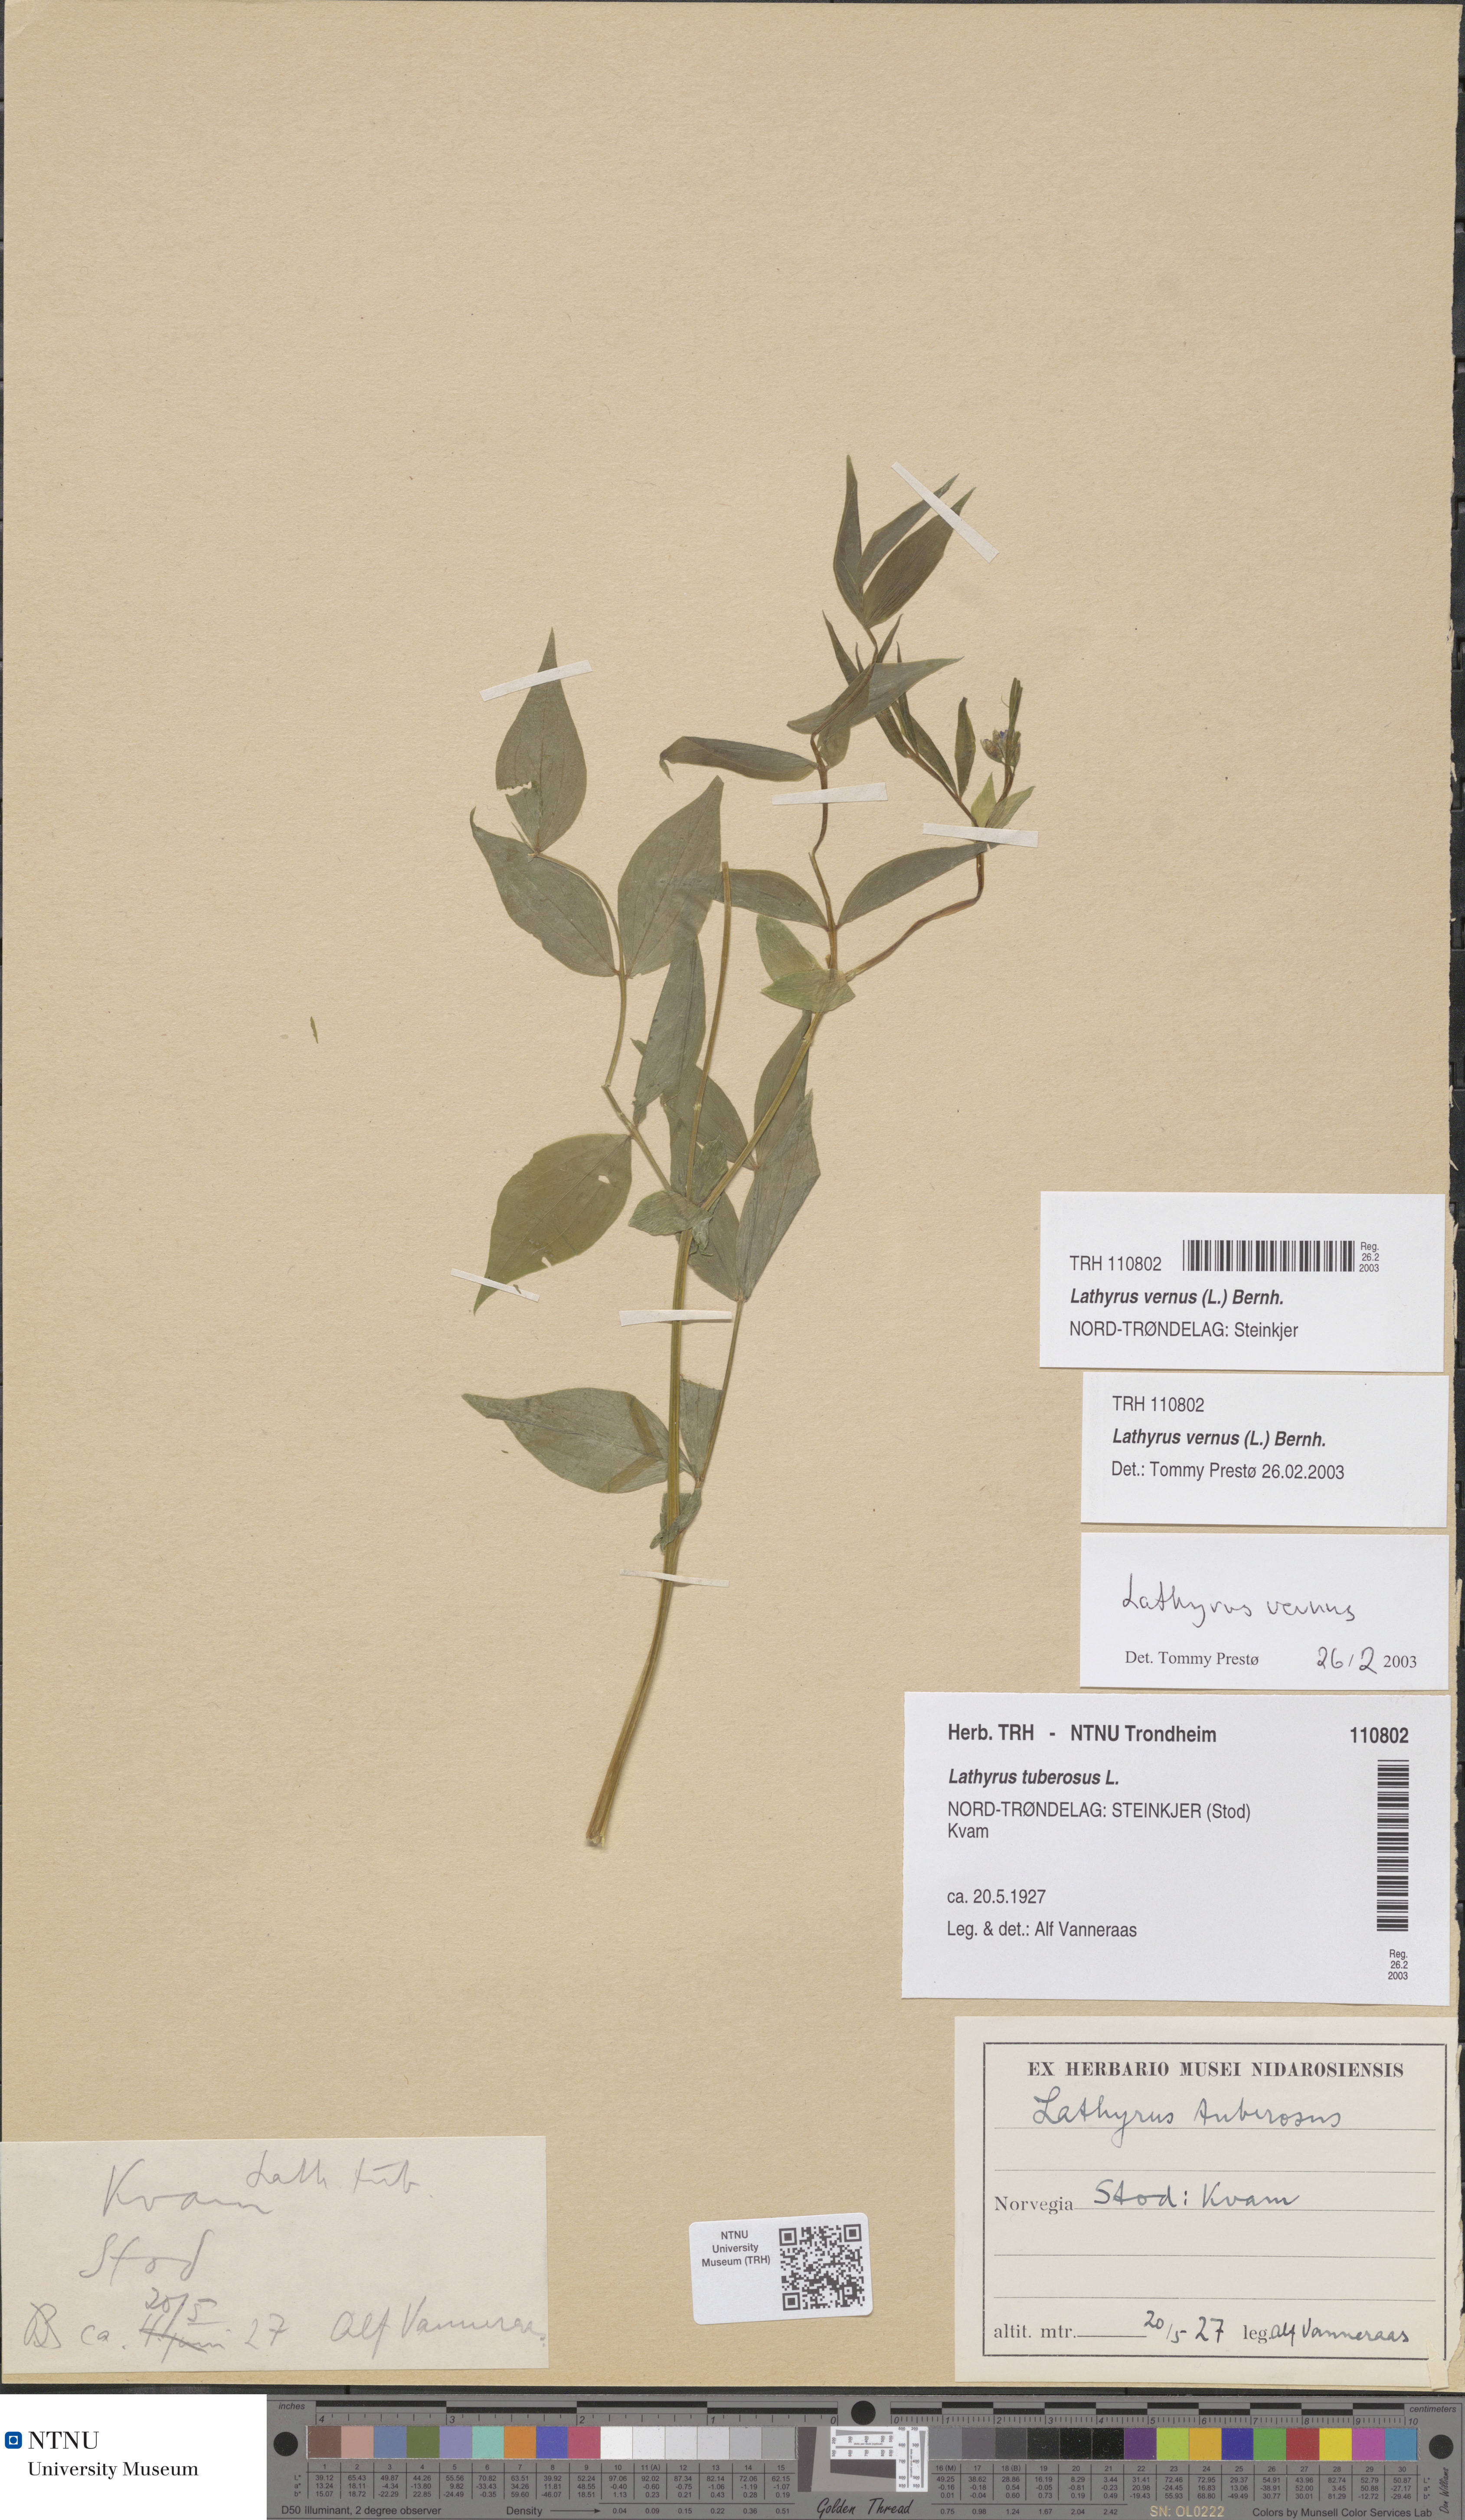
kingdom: Plantae
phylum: Tracheophyta
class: Magnoliopsida
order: Fabales
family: Fabaceae
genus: Lathyrus
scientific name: Lathyrus vernus
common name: Spring pea
